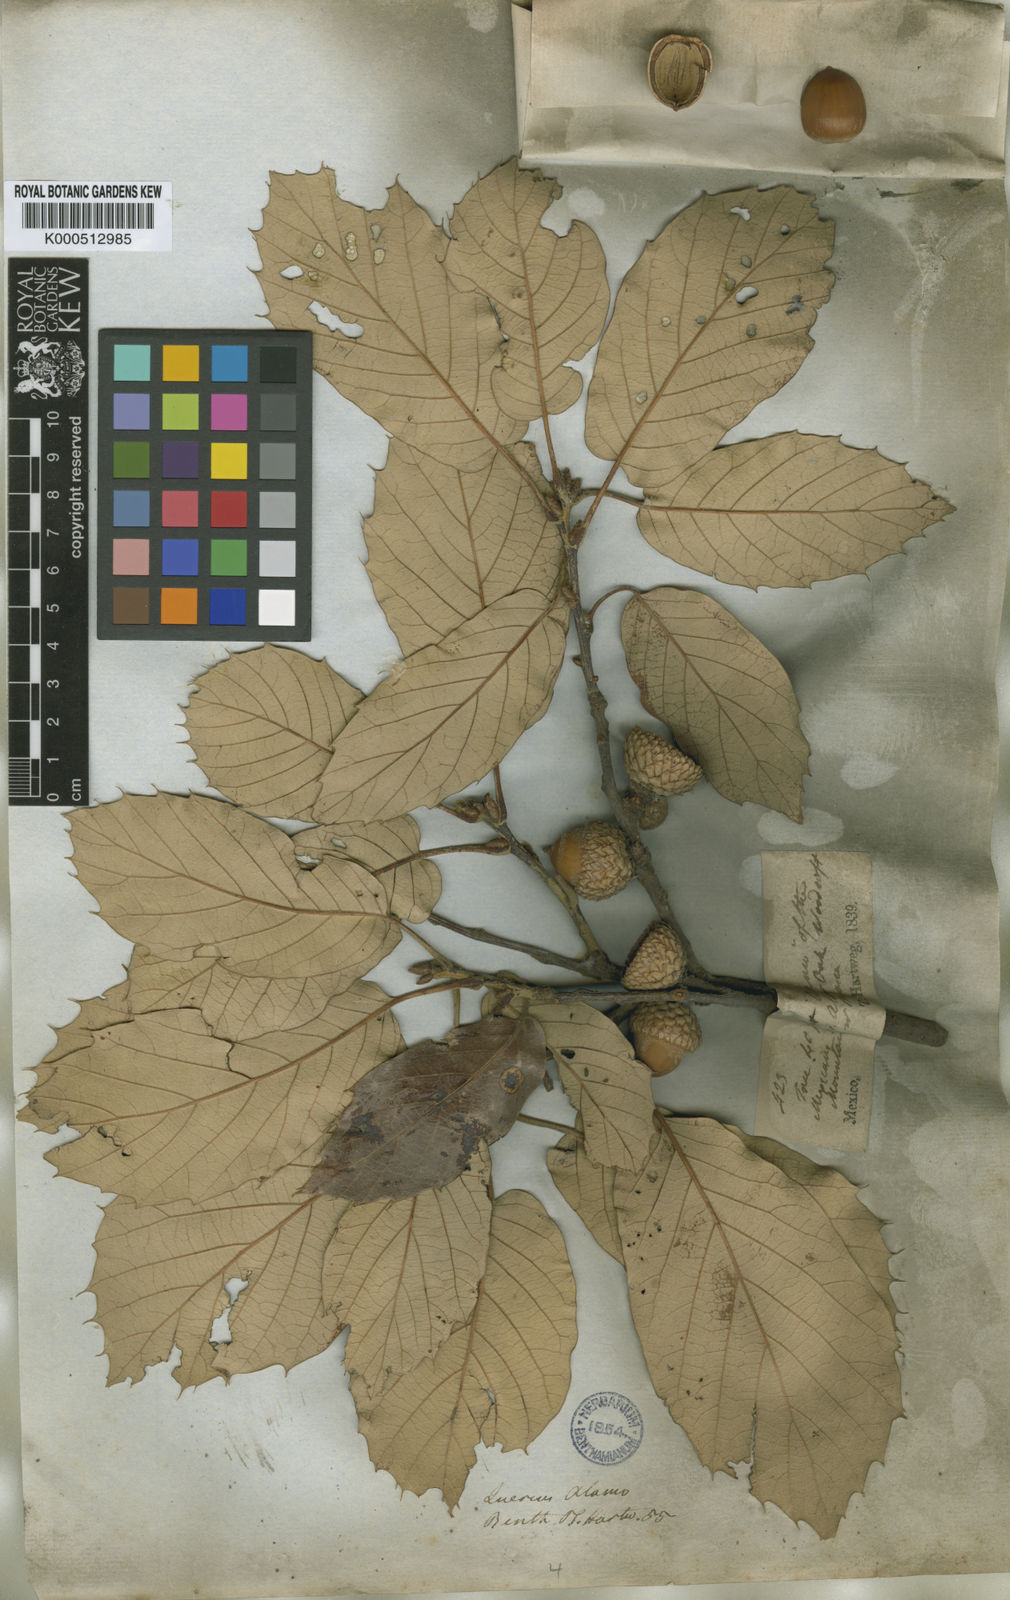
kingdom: Plantae
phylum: Tracheophyta
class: Magnoliopsida
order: Fagales
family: Fagaceae
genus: Quercus
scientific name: Quercus calophylla
